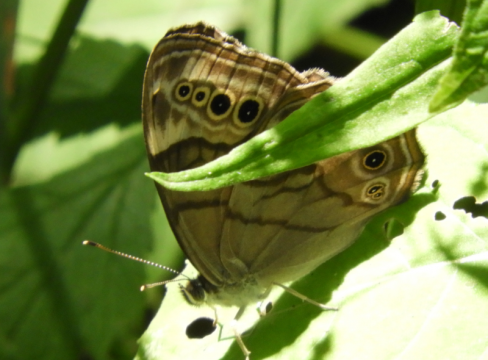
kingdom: Animalia
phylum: Arthropoda
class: Insecta
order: Lepidoptera
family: Nymphalidae
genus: Lethe
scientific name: Lethe anthedon
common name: Northern Pearly-Eye
